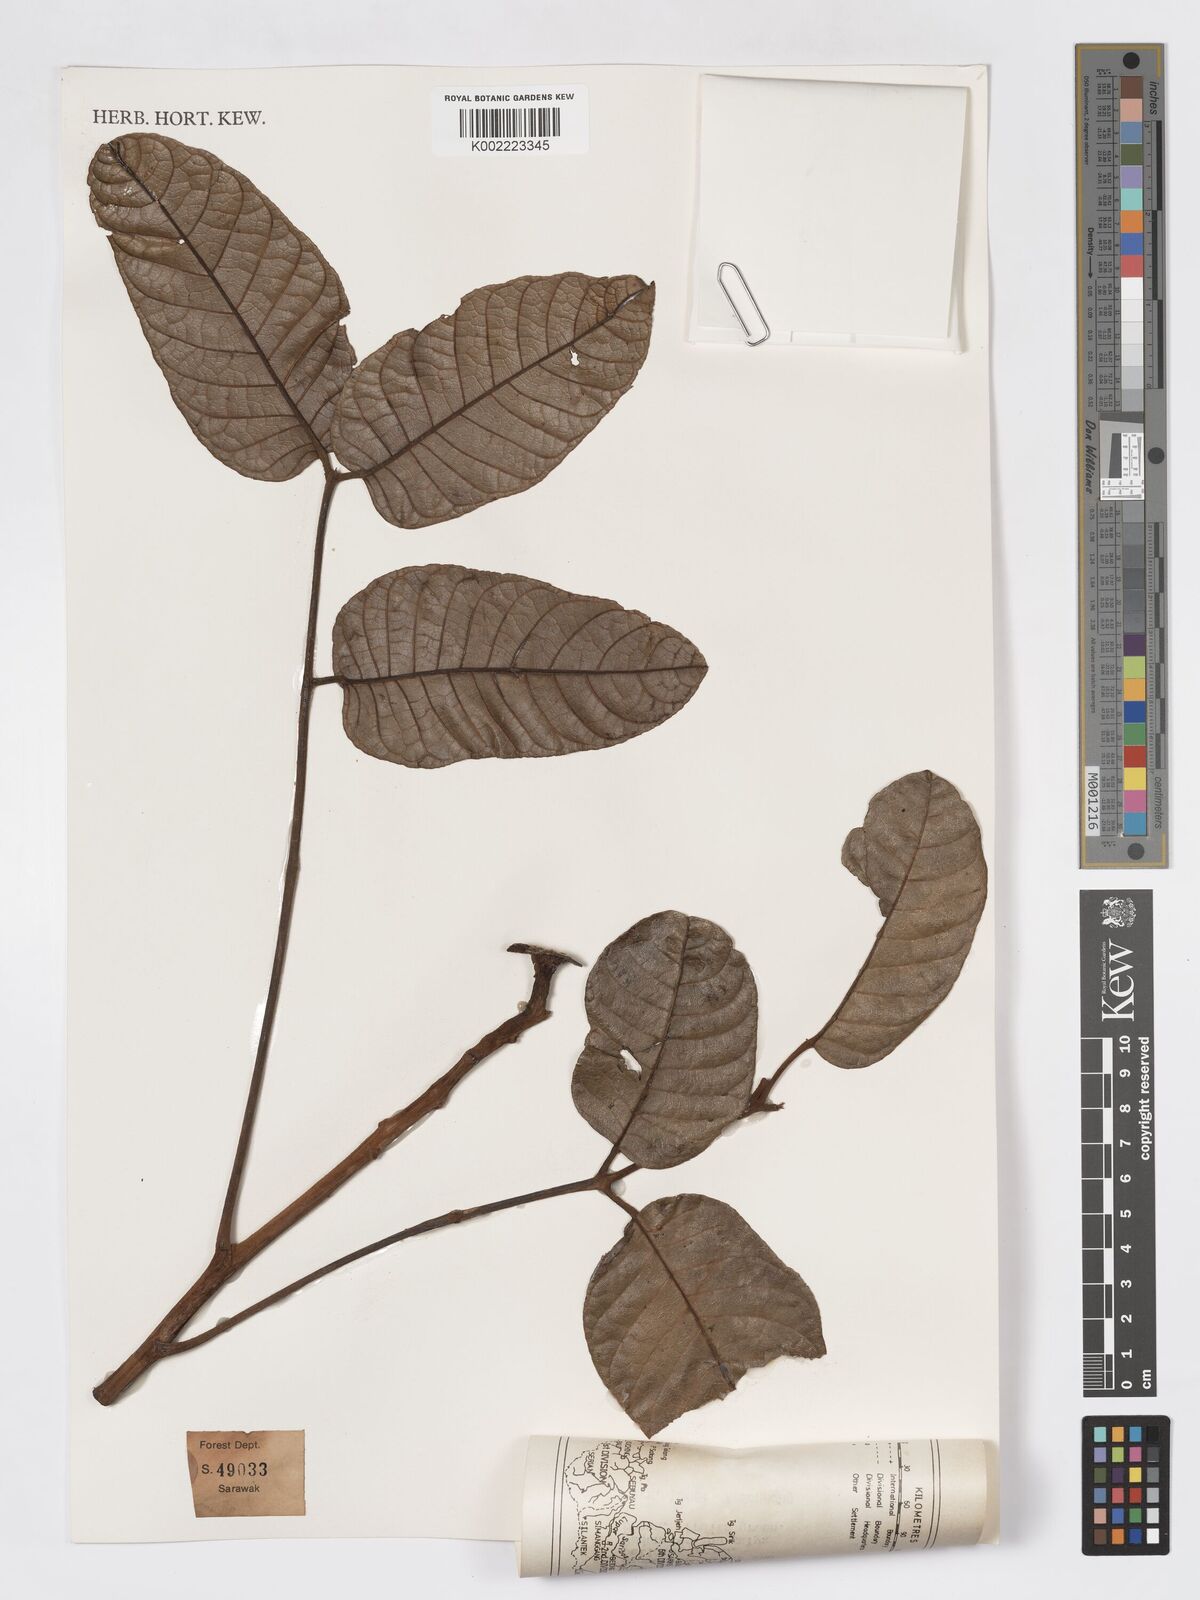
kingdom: Plantae
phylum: Tracheophyta
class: Magnoliopsida
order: Sapindales
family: Burseraceae
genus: Canarium
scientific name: Canarium apertum
